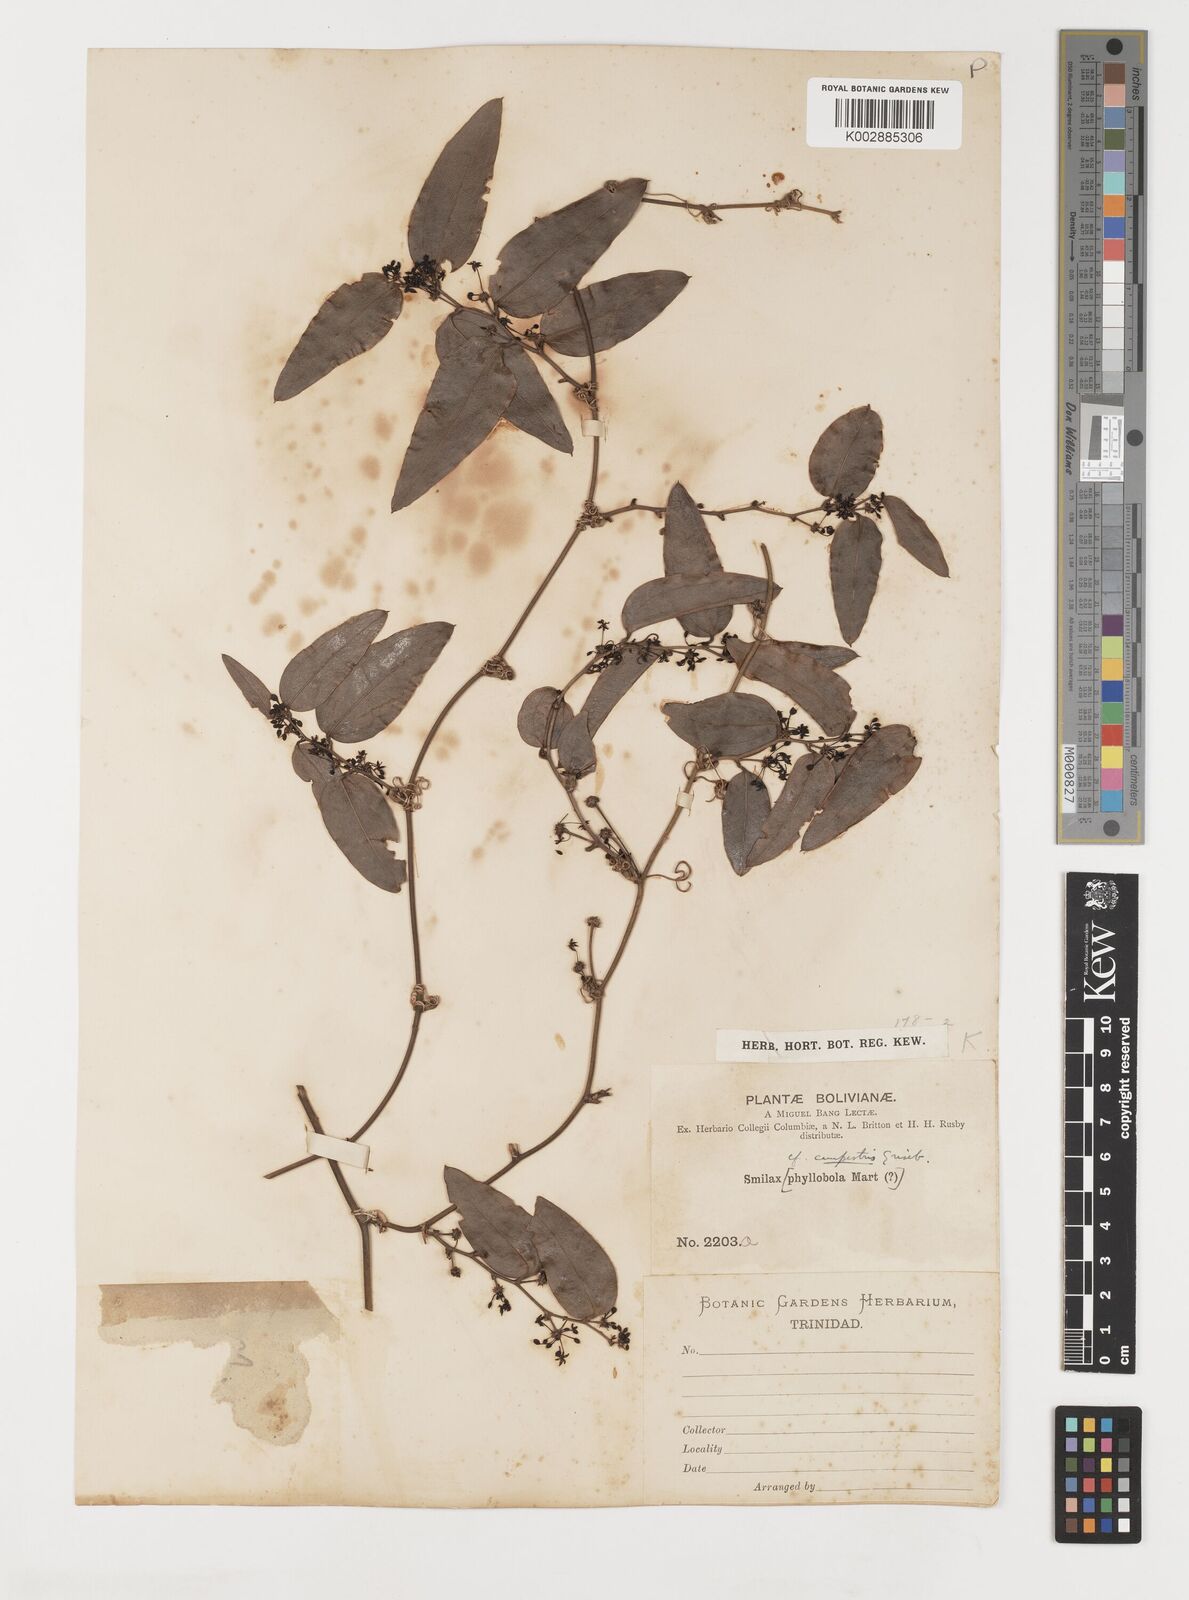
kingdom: Plantae
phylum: Tracheophyta
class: Liliopsida
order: Liliales
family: Smilacaceae
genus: Smilax
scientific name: Smilax campestris
